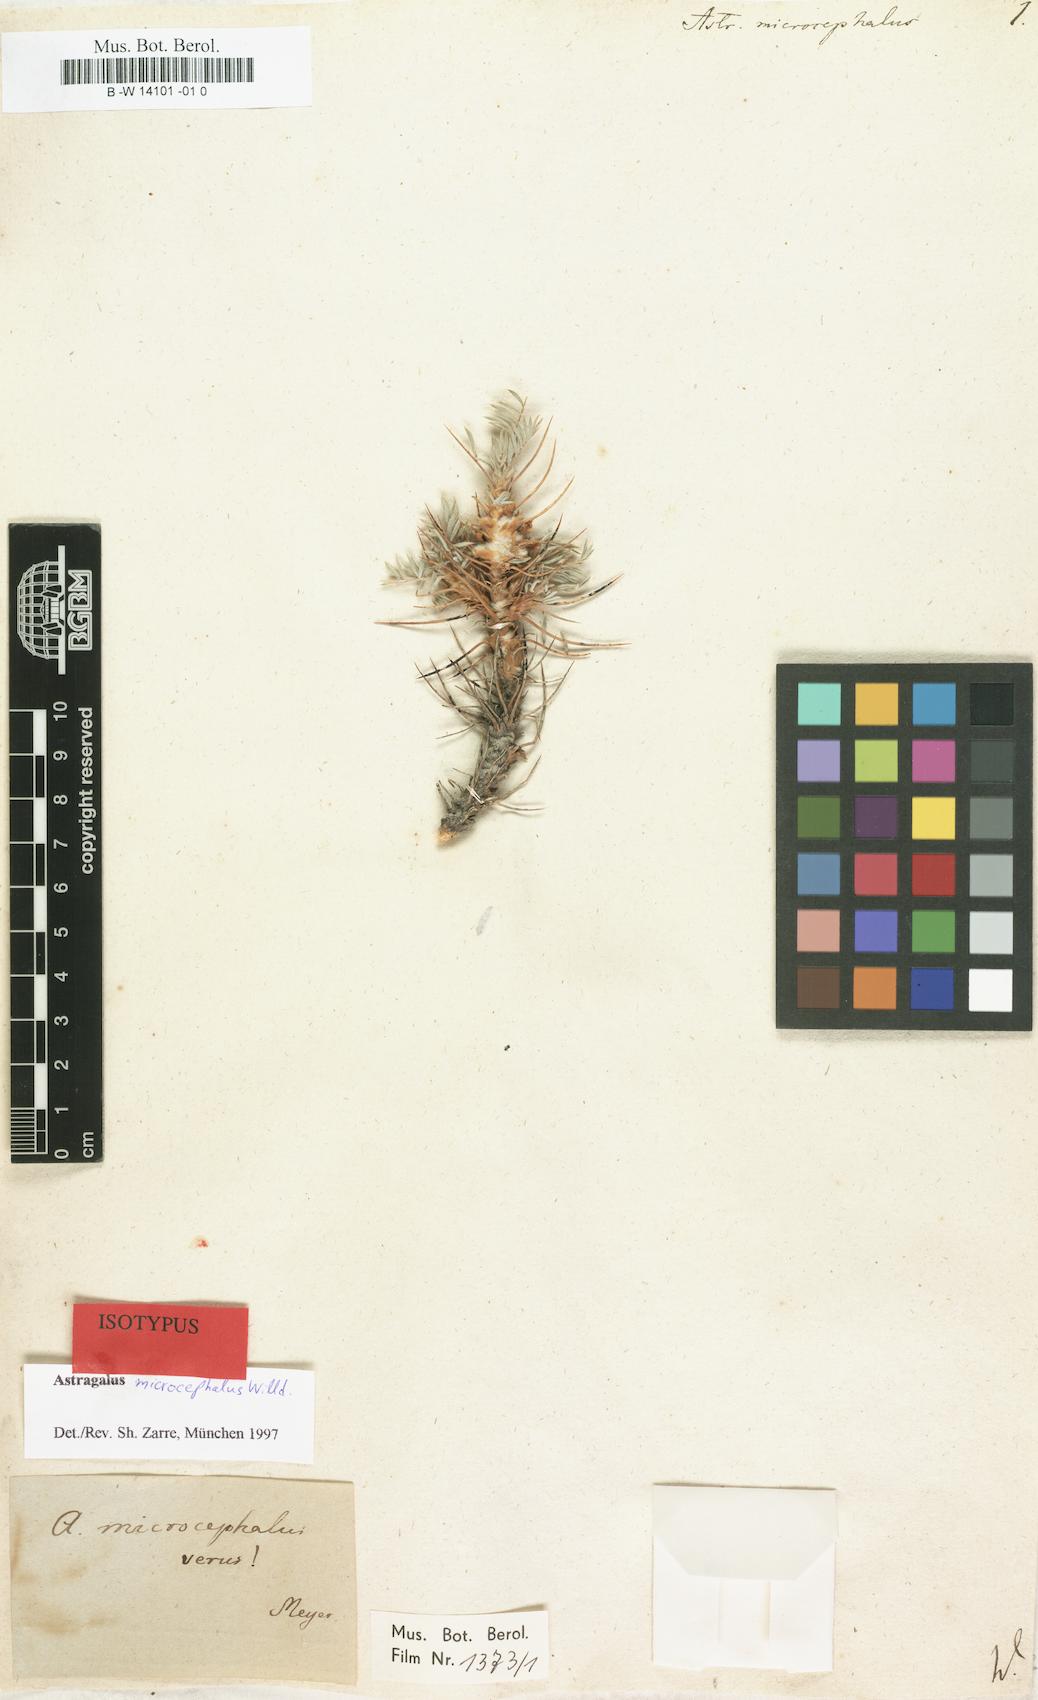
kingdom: Plantae
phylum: Tracheophyta
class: Magnoliopsida
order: Fabales
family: Fabaceae
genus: Astragalus
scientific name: Astragalus microcephalus
